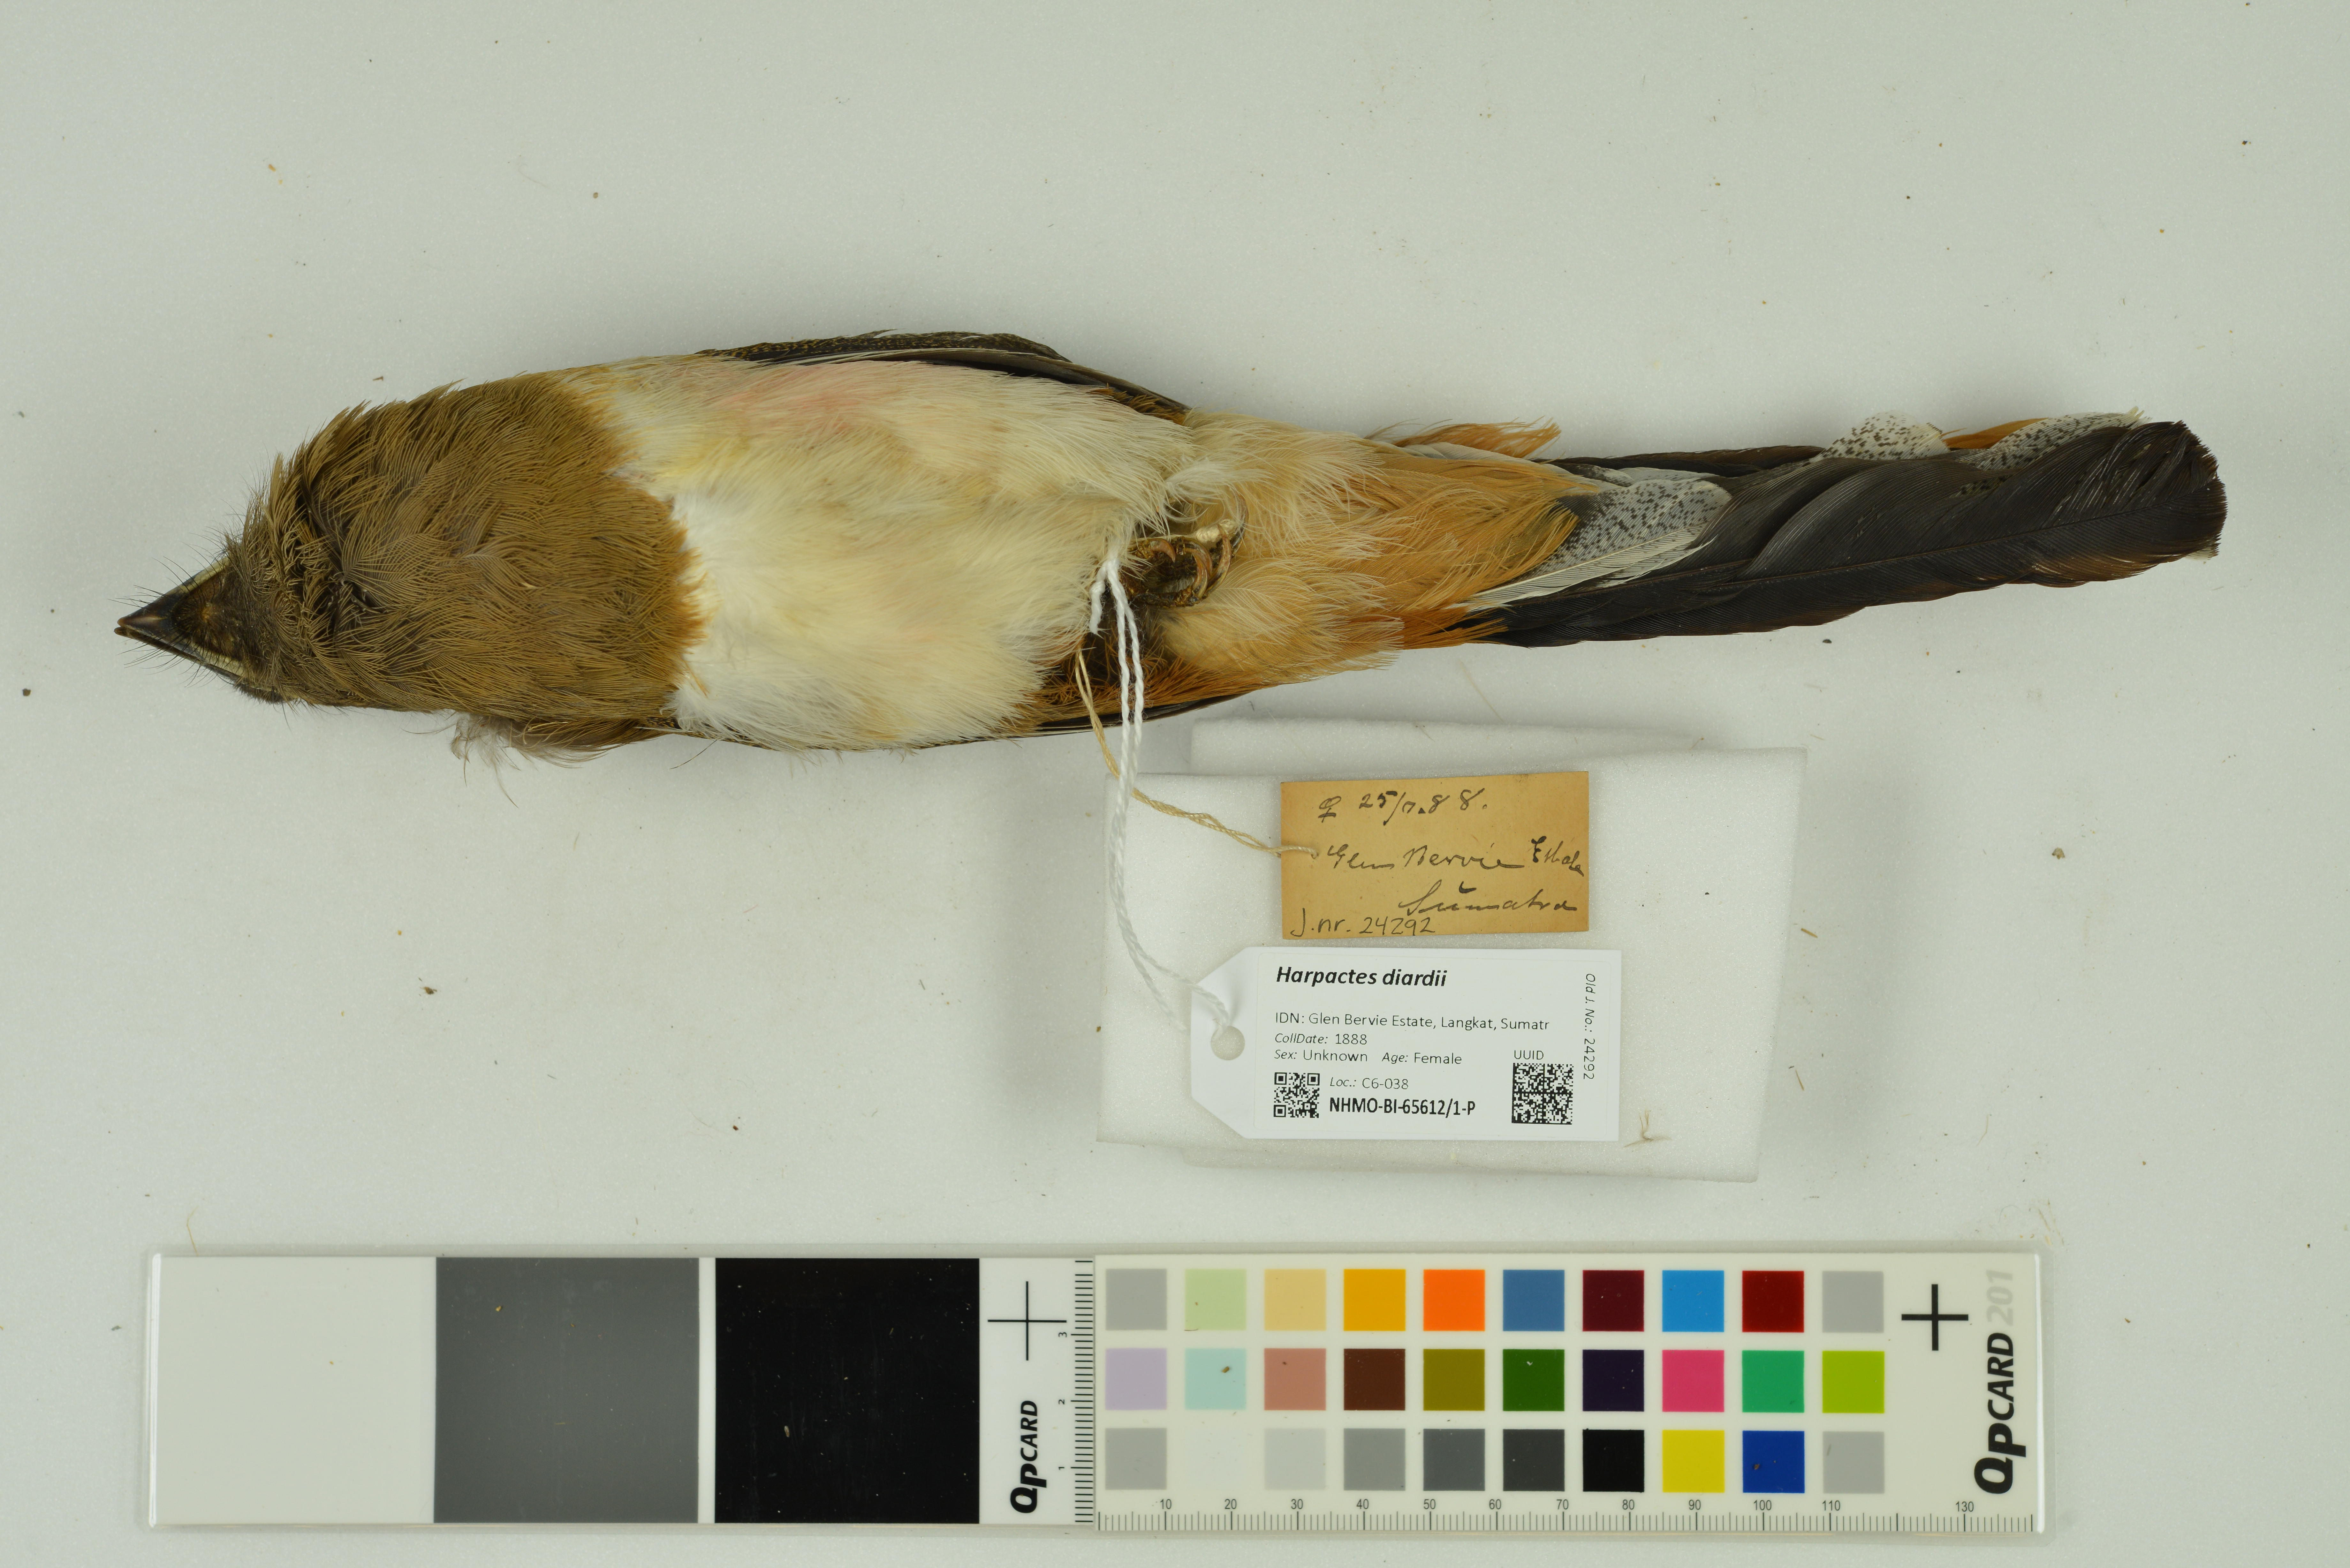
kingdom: Animalia
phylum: Chordata
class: Aves
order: Trogoniformes
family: Trogonidae
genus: Harpactes
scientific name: Harpactes diardii
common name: Diard's trogon
